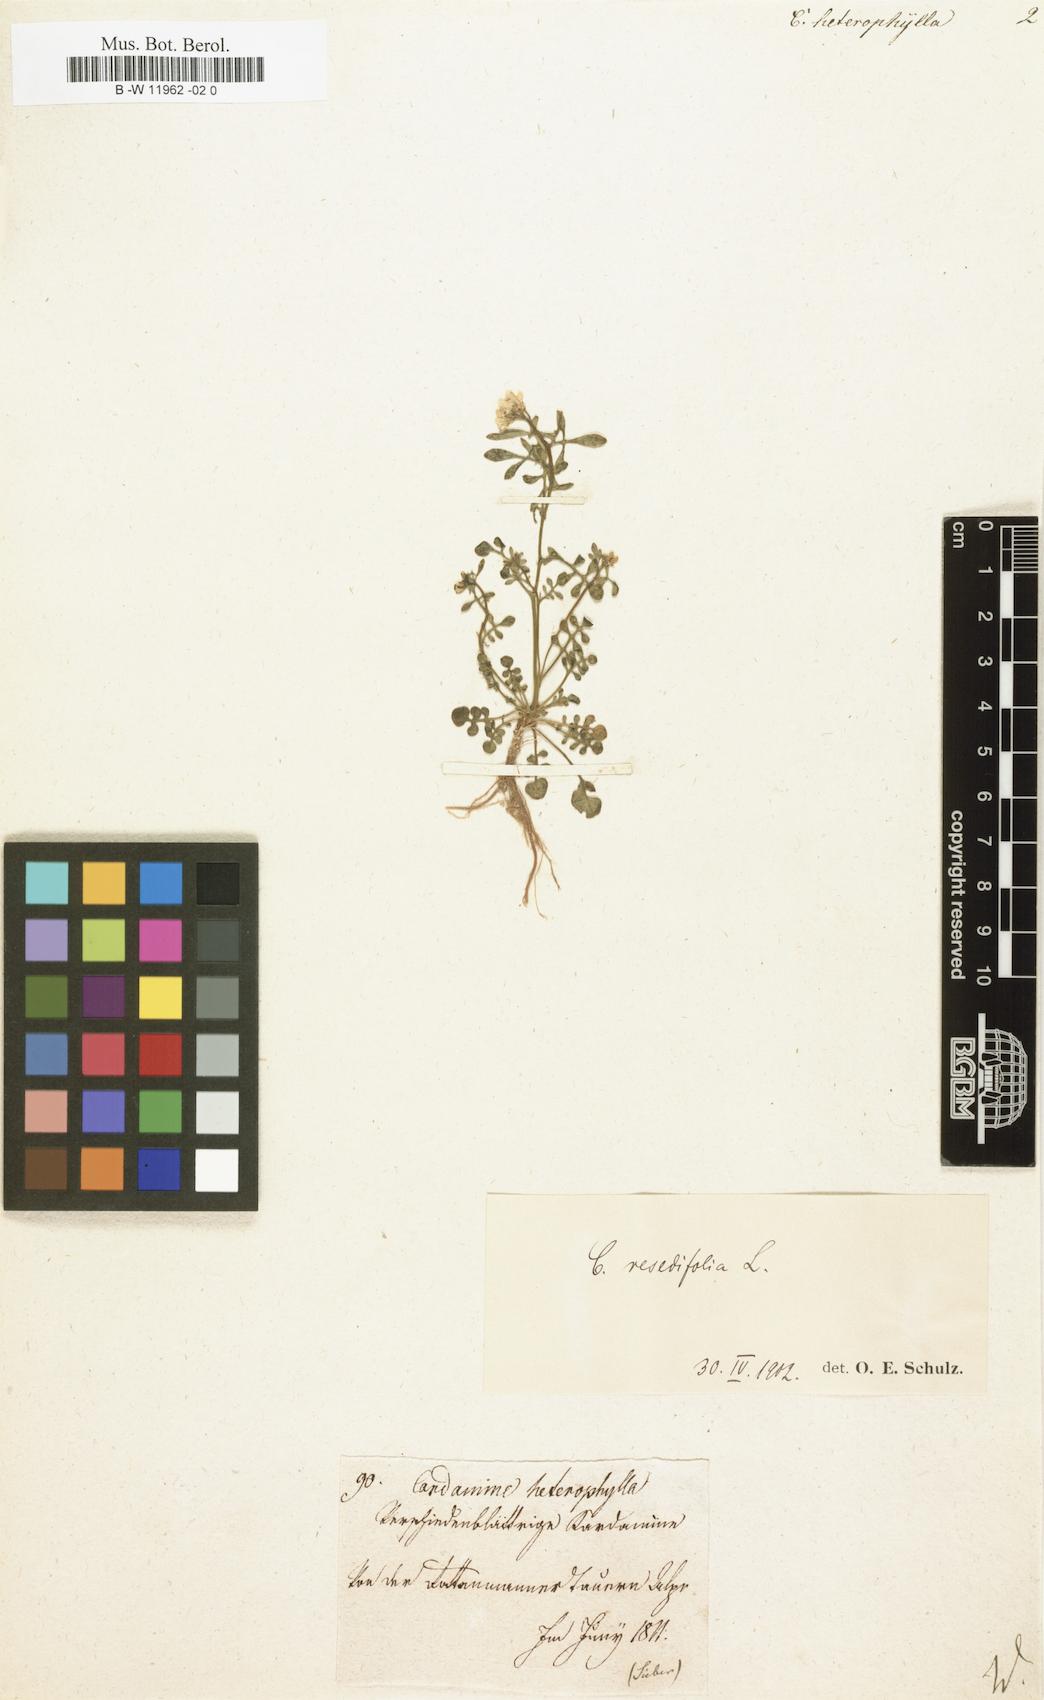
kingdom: Plantae
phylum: Tracheophyta
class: Magnoliopsida
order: Brassicales
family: Brassicaceae
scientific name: Brassicaceae
